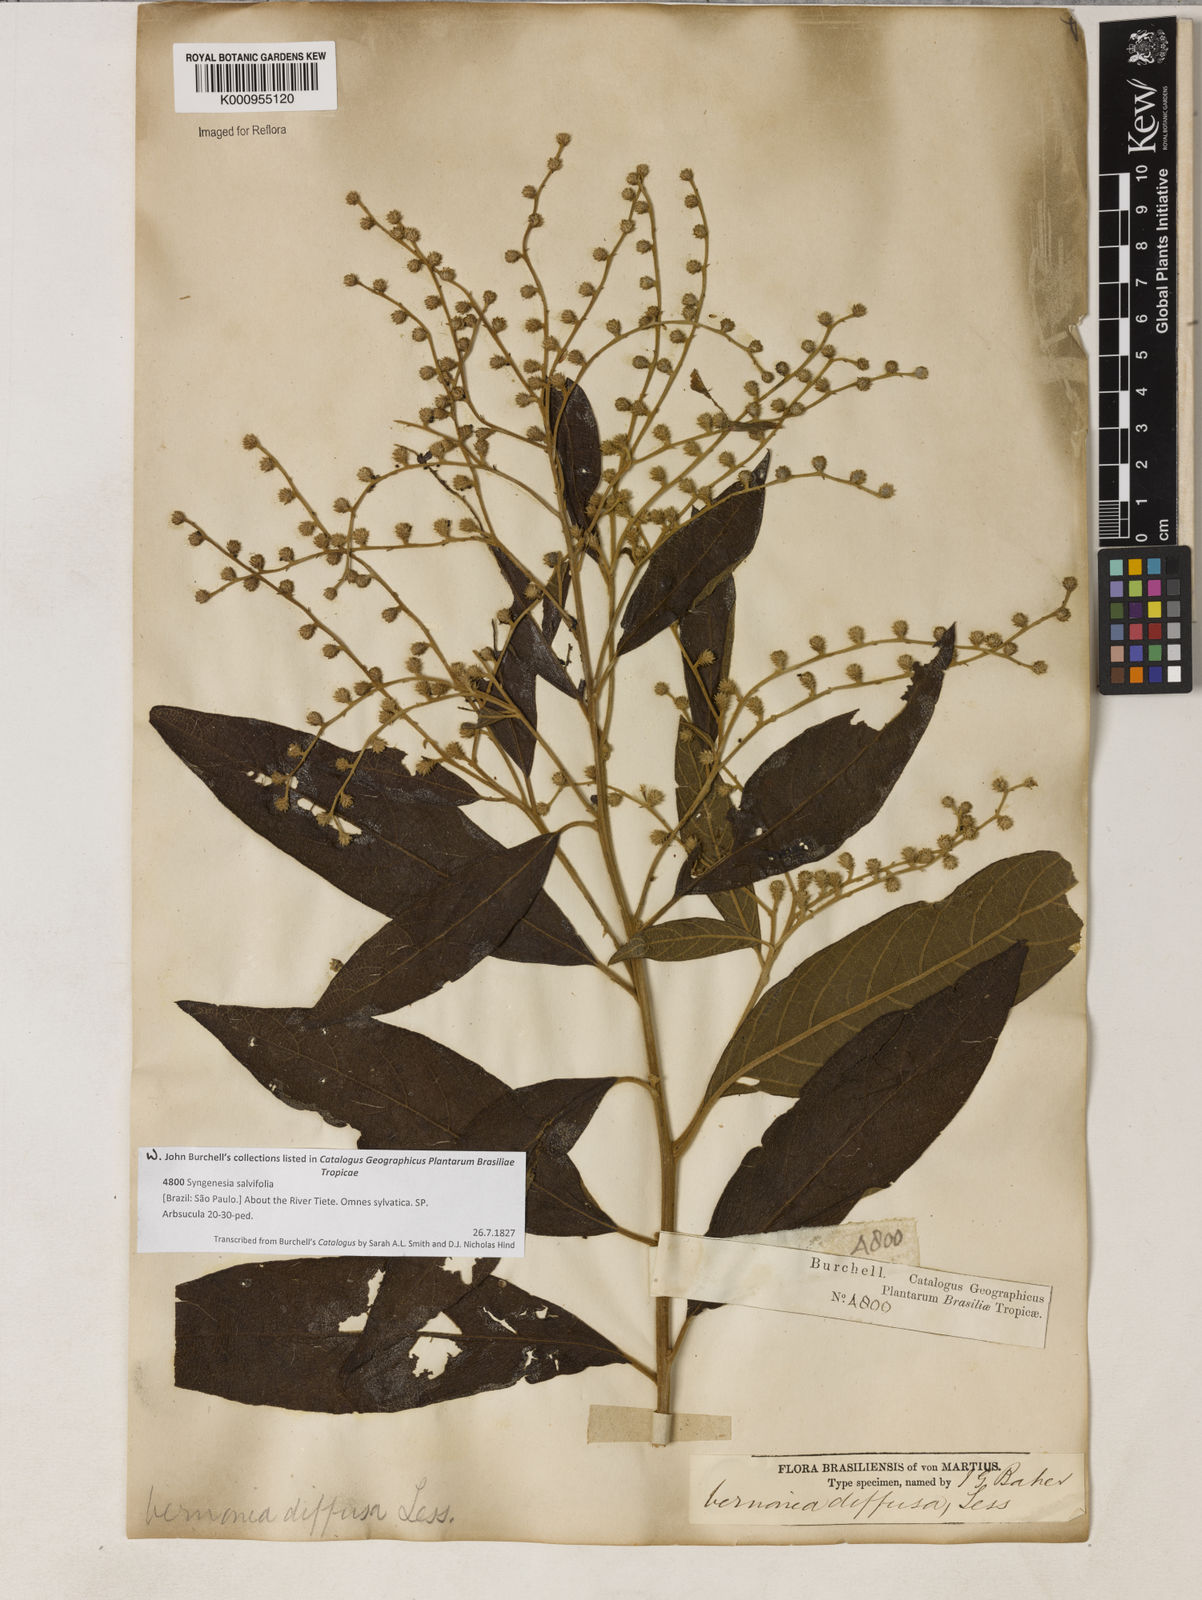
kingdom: Plantae
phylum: Tracheophyta
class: Magnoliopsida
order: Asterales
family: Asteraceae
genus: Vernonanthura
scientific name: Vernonanthura divaricata
